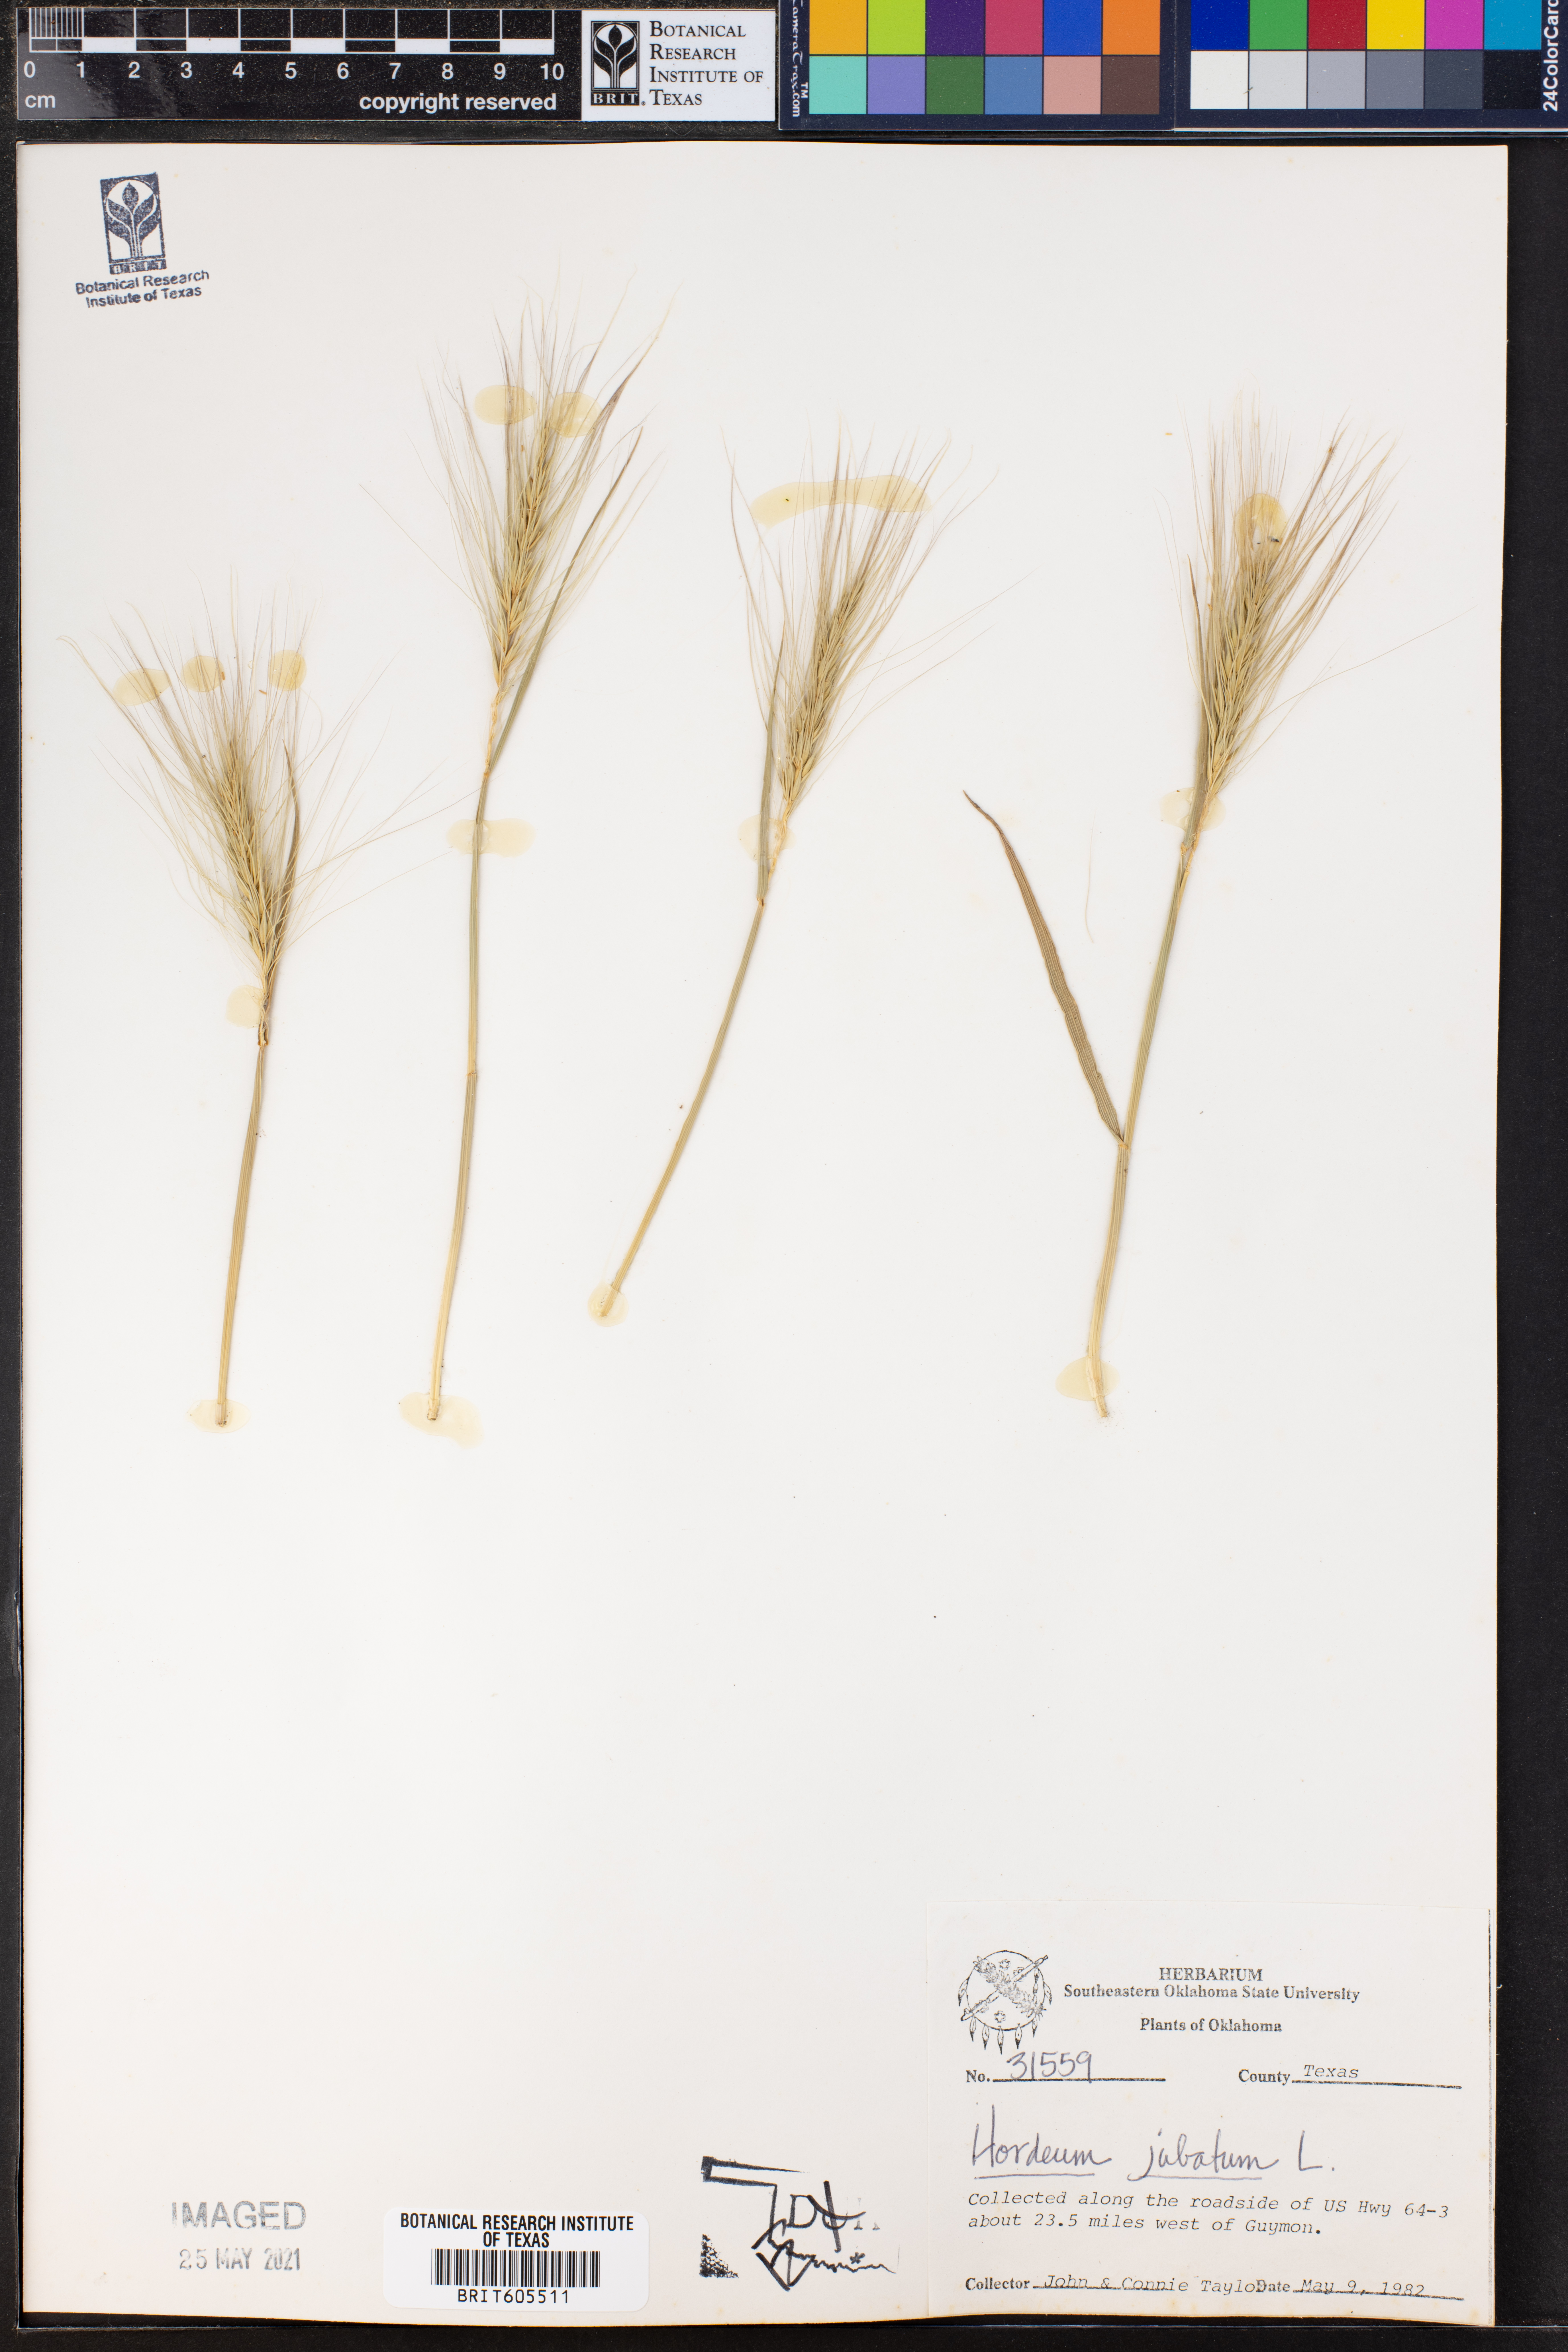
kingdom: Plantae
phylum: Tracheophyta
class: Liliopsida
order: Poales
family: Poaceae
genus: Hordeum
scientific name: Hordeum jubatum
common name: Foxtail barley
